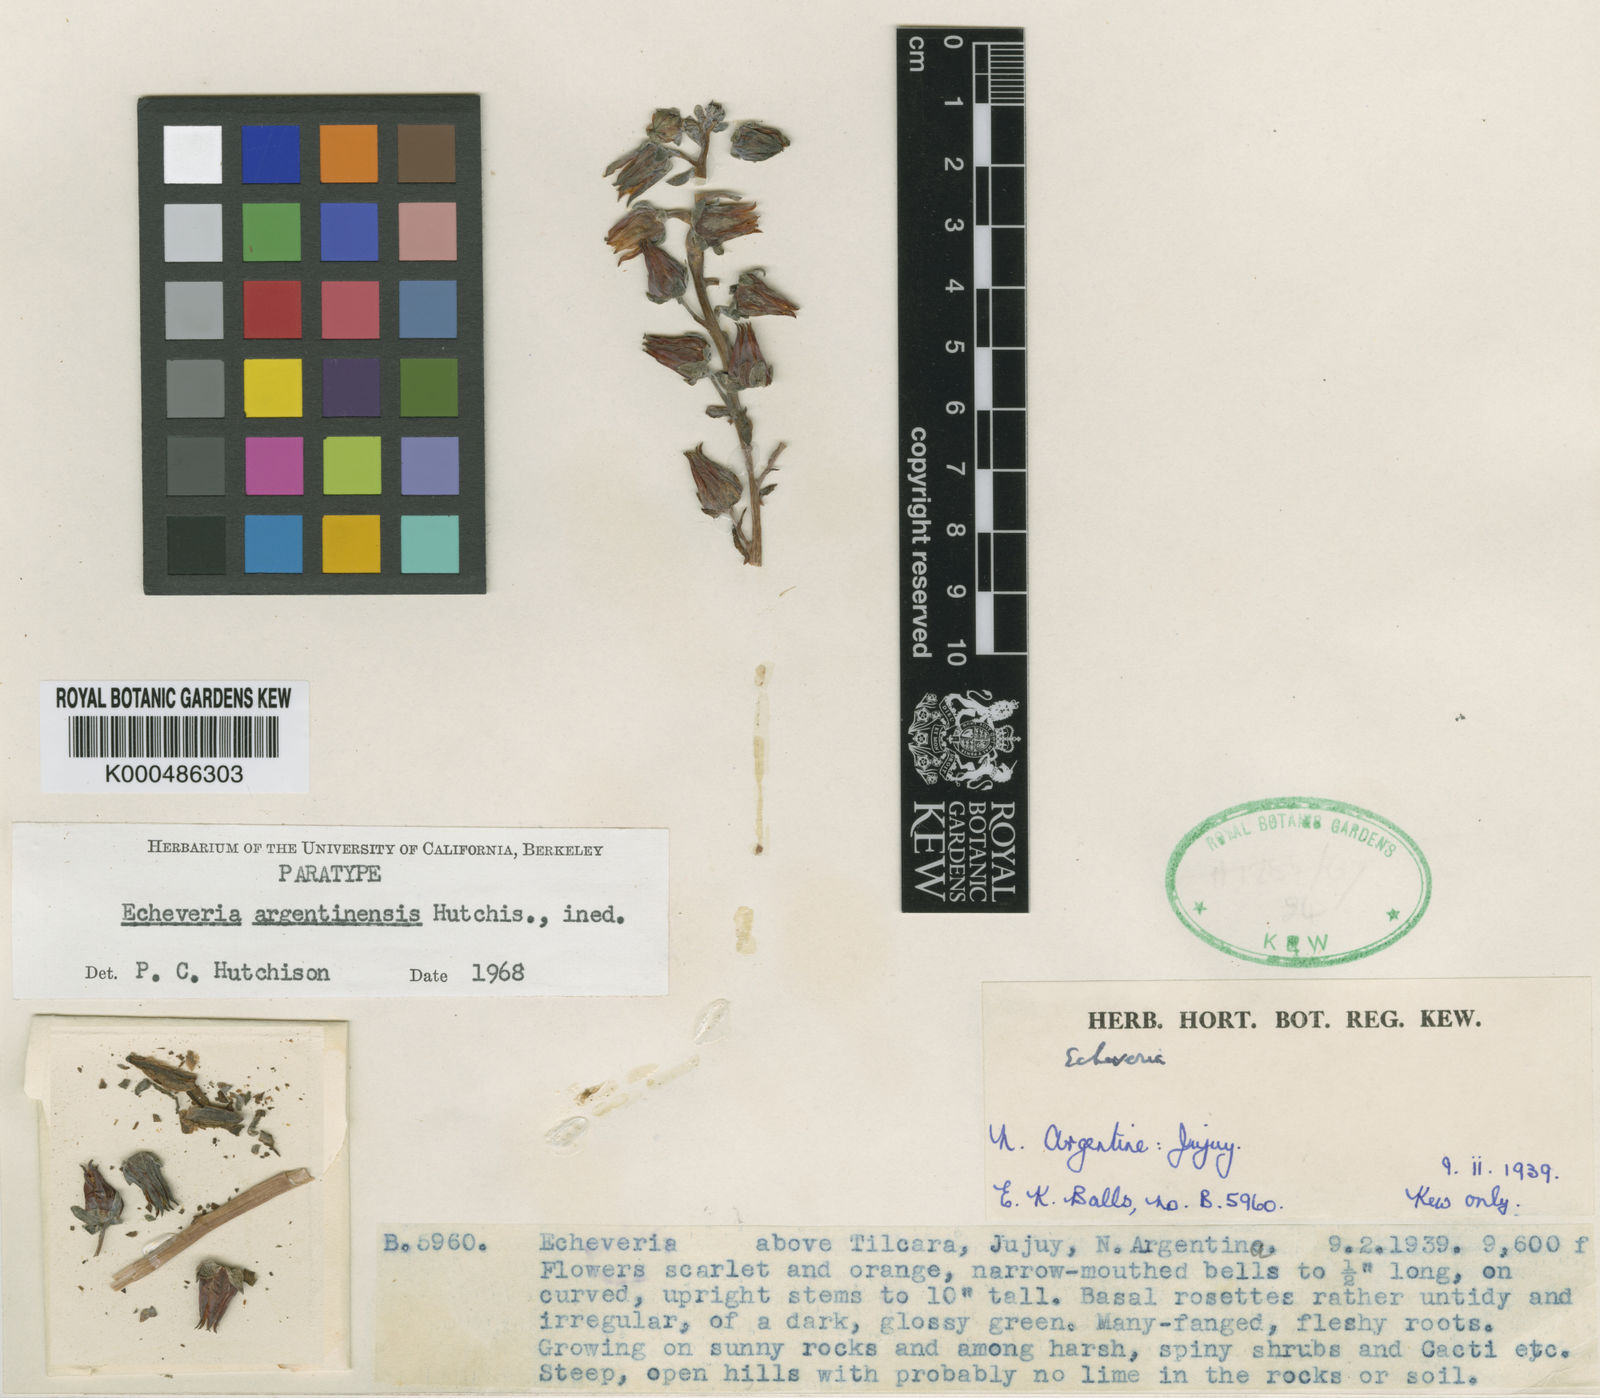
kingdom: Plantae
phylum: Tracheophyta
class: Magnoliopsida
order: Saxifragales
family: Crassulaceae
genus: Echeveria
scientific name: Echeveria
